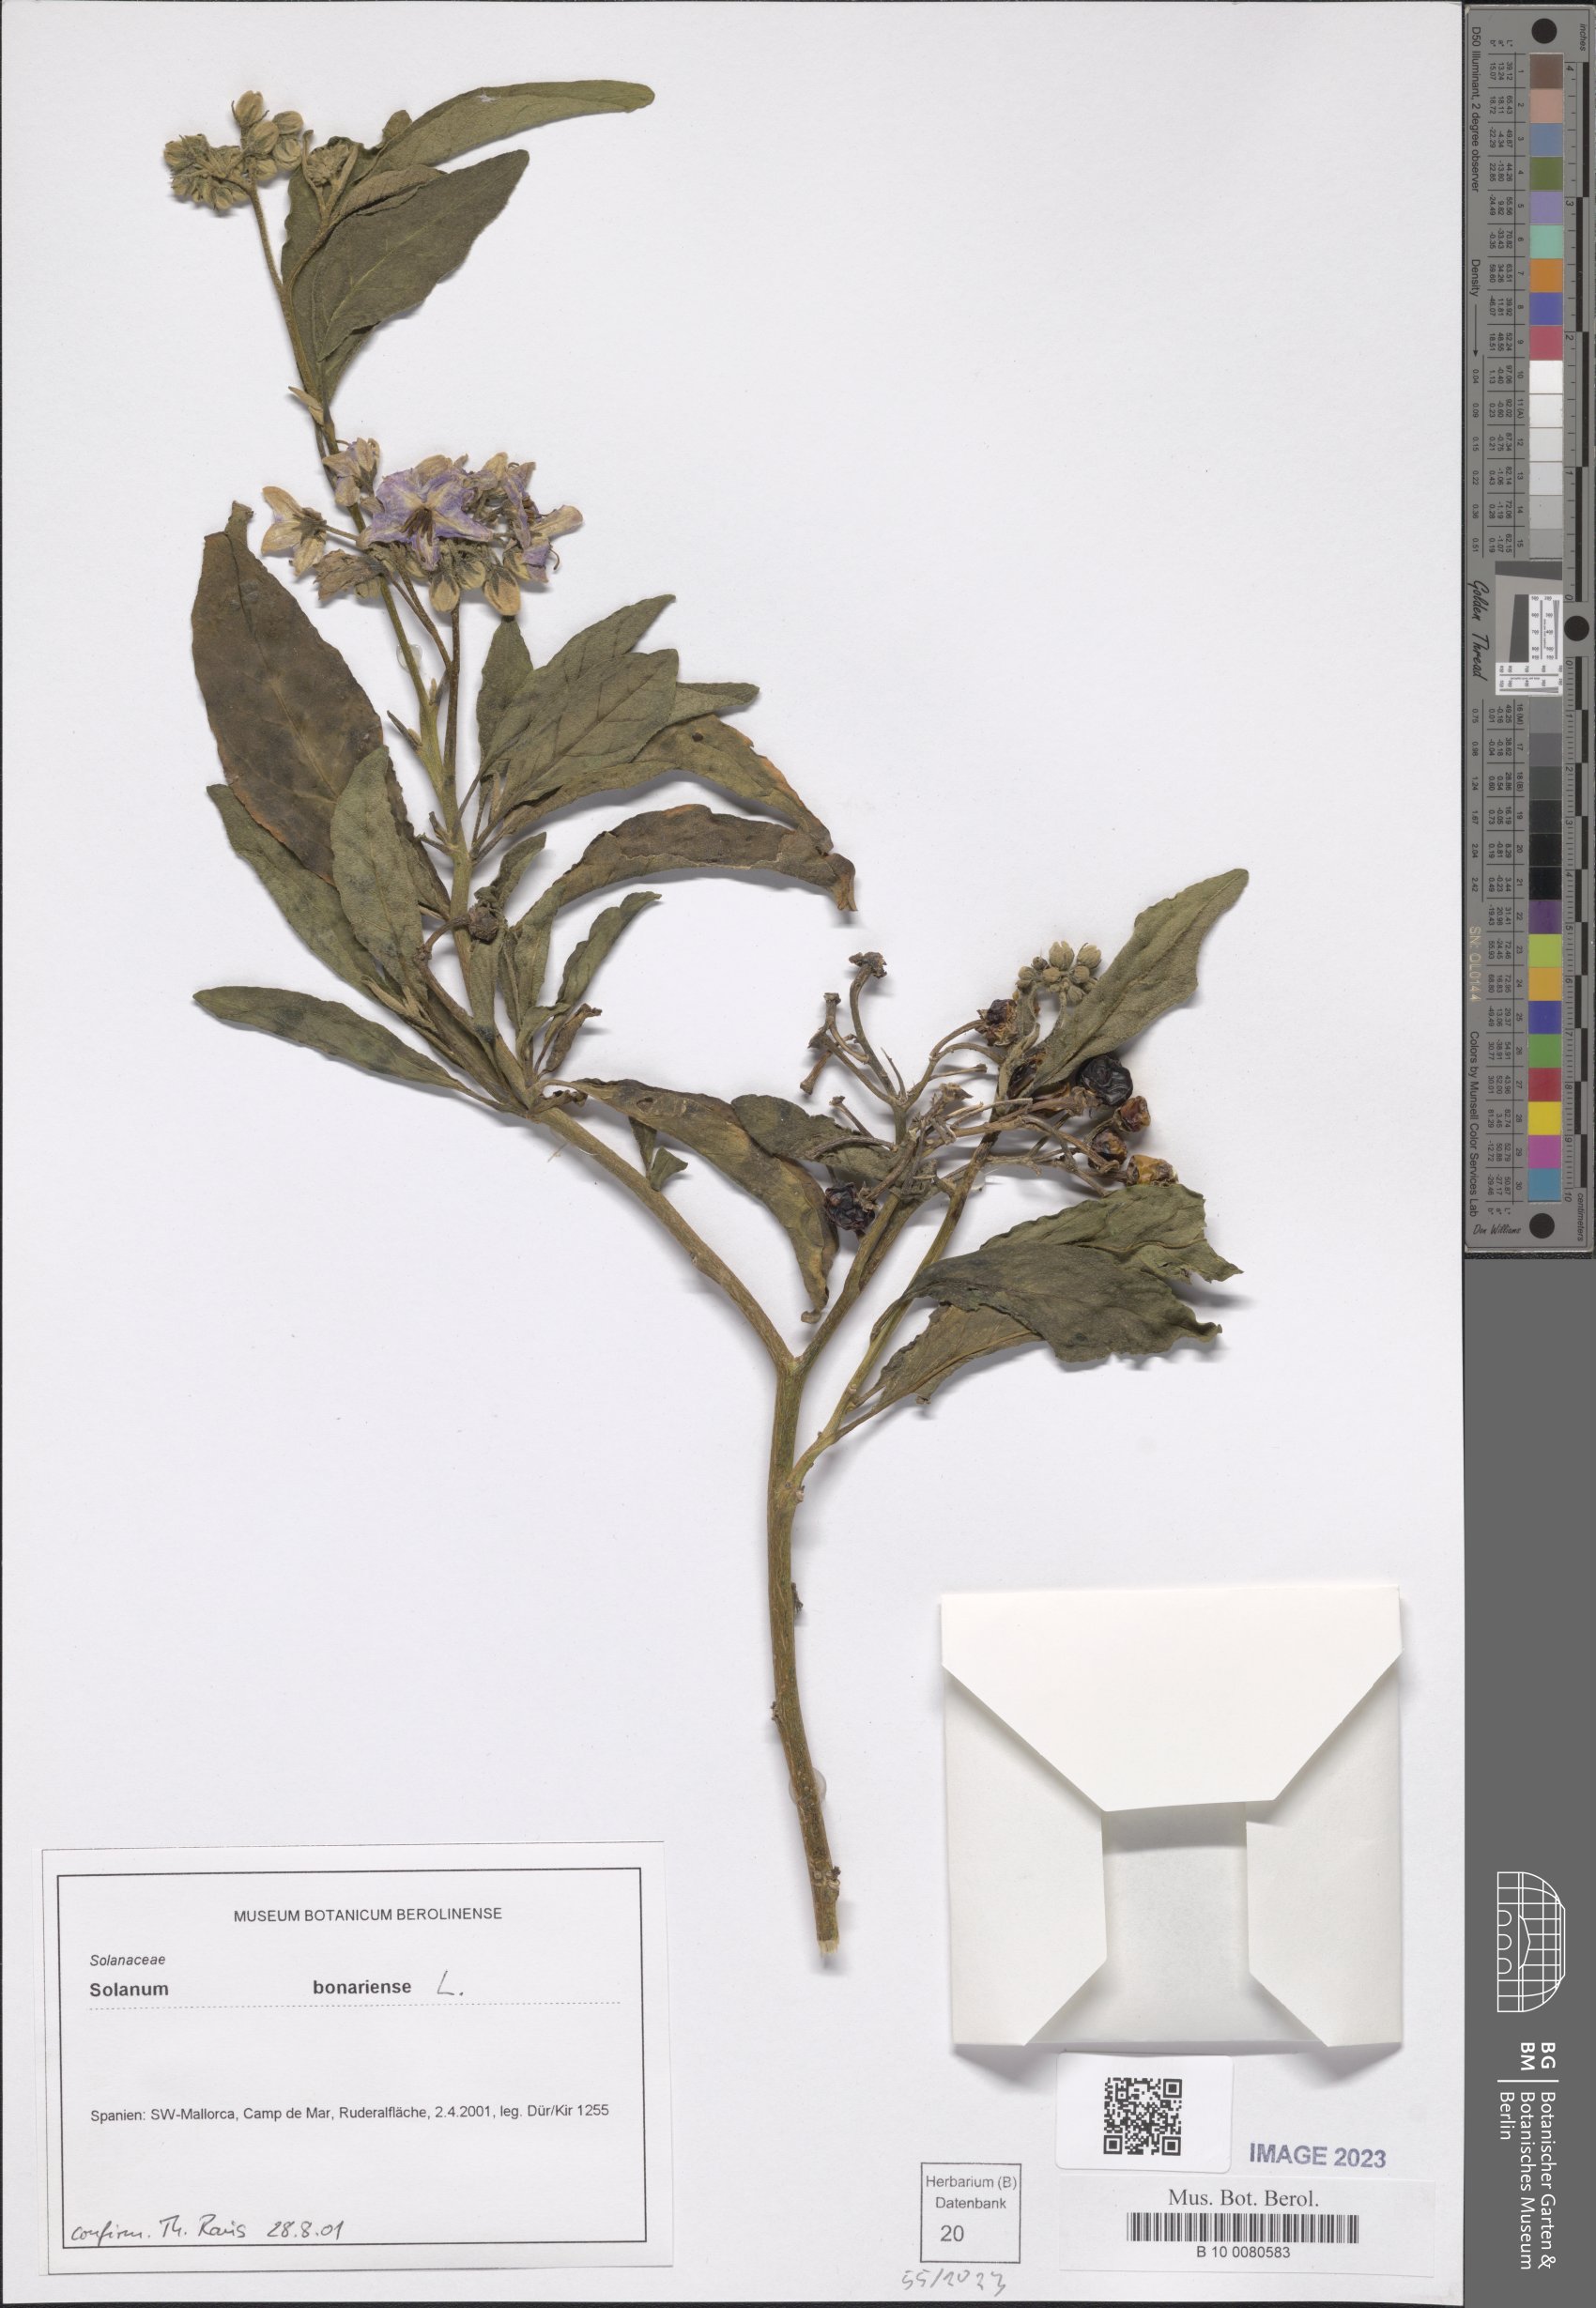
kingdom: Plantae
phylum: Tracheophyta
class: Magnoliopsida
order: Solanales
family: Solanaceae
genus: Solanum
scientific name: Solanum bonariense
